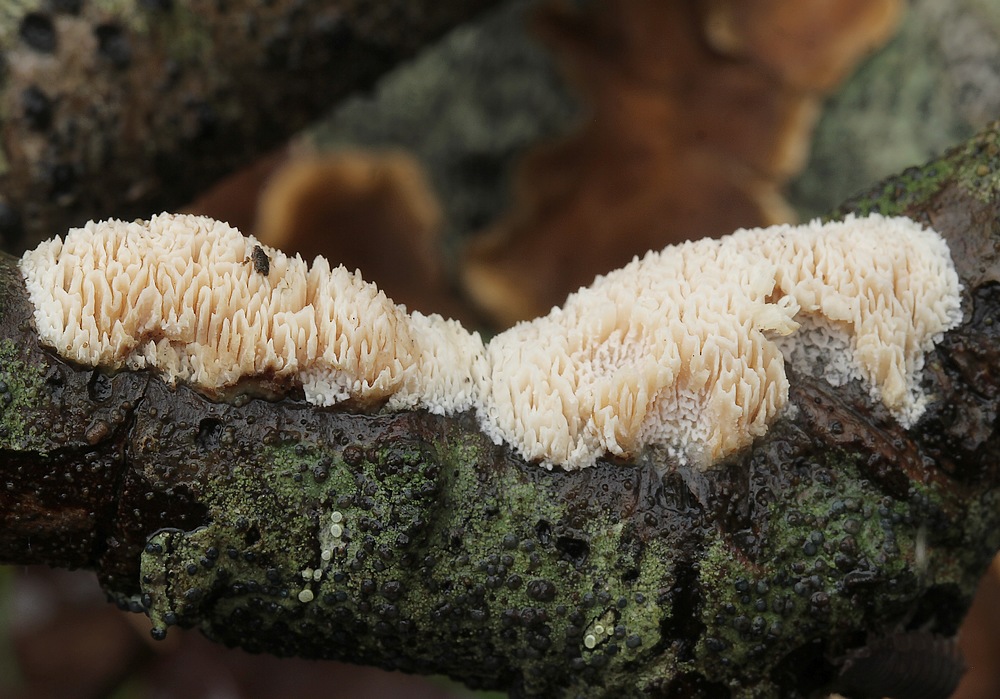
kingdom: Fungi
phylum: Basidiomycota
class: Agaricomycetes
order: Hymenochaetales
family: Schizoporaceae
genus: Xylodon
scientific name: Xylodon
